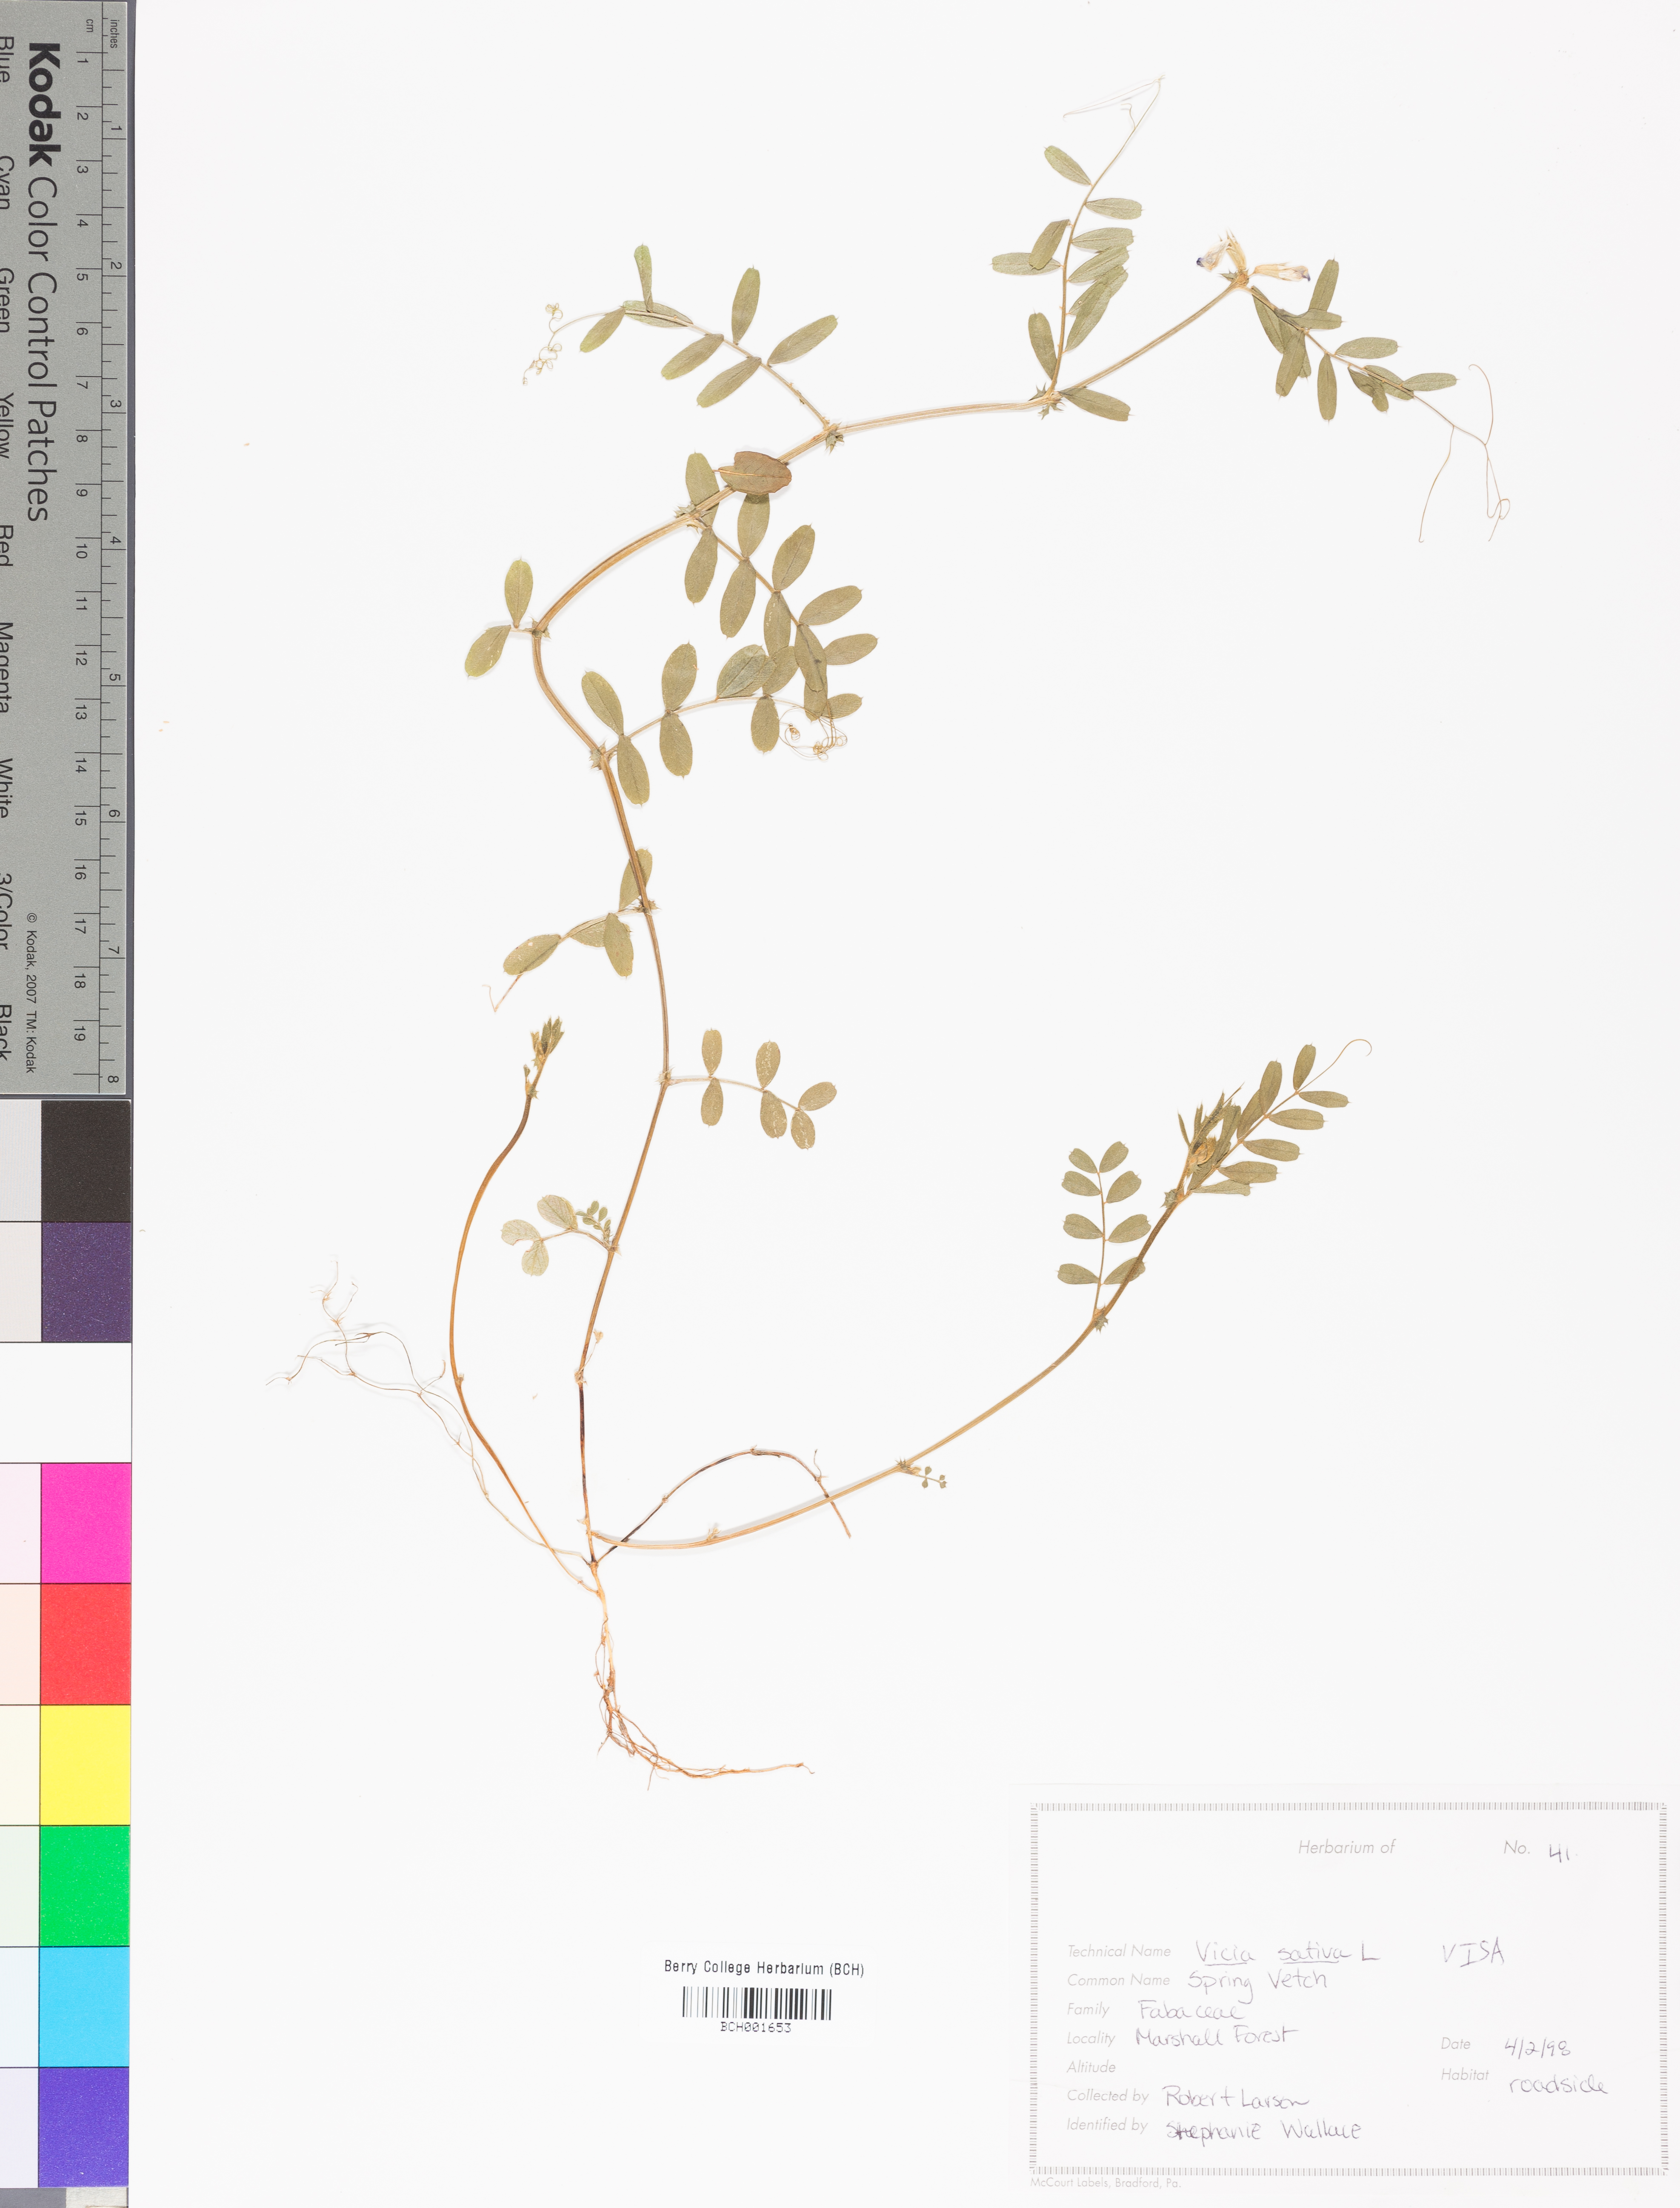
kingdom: Plantae
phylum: Tracheophyta
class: Magnoliopsida
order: Fabales
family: Fabaceae
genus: Vicia
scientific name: Vicia sativa
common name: Garden vetch
